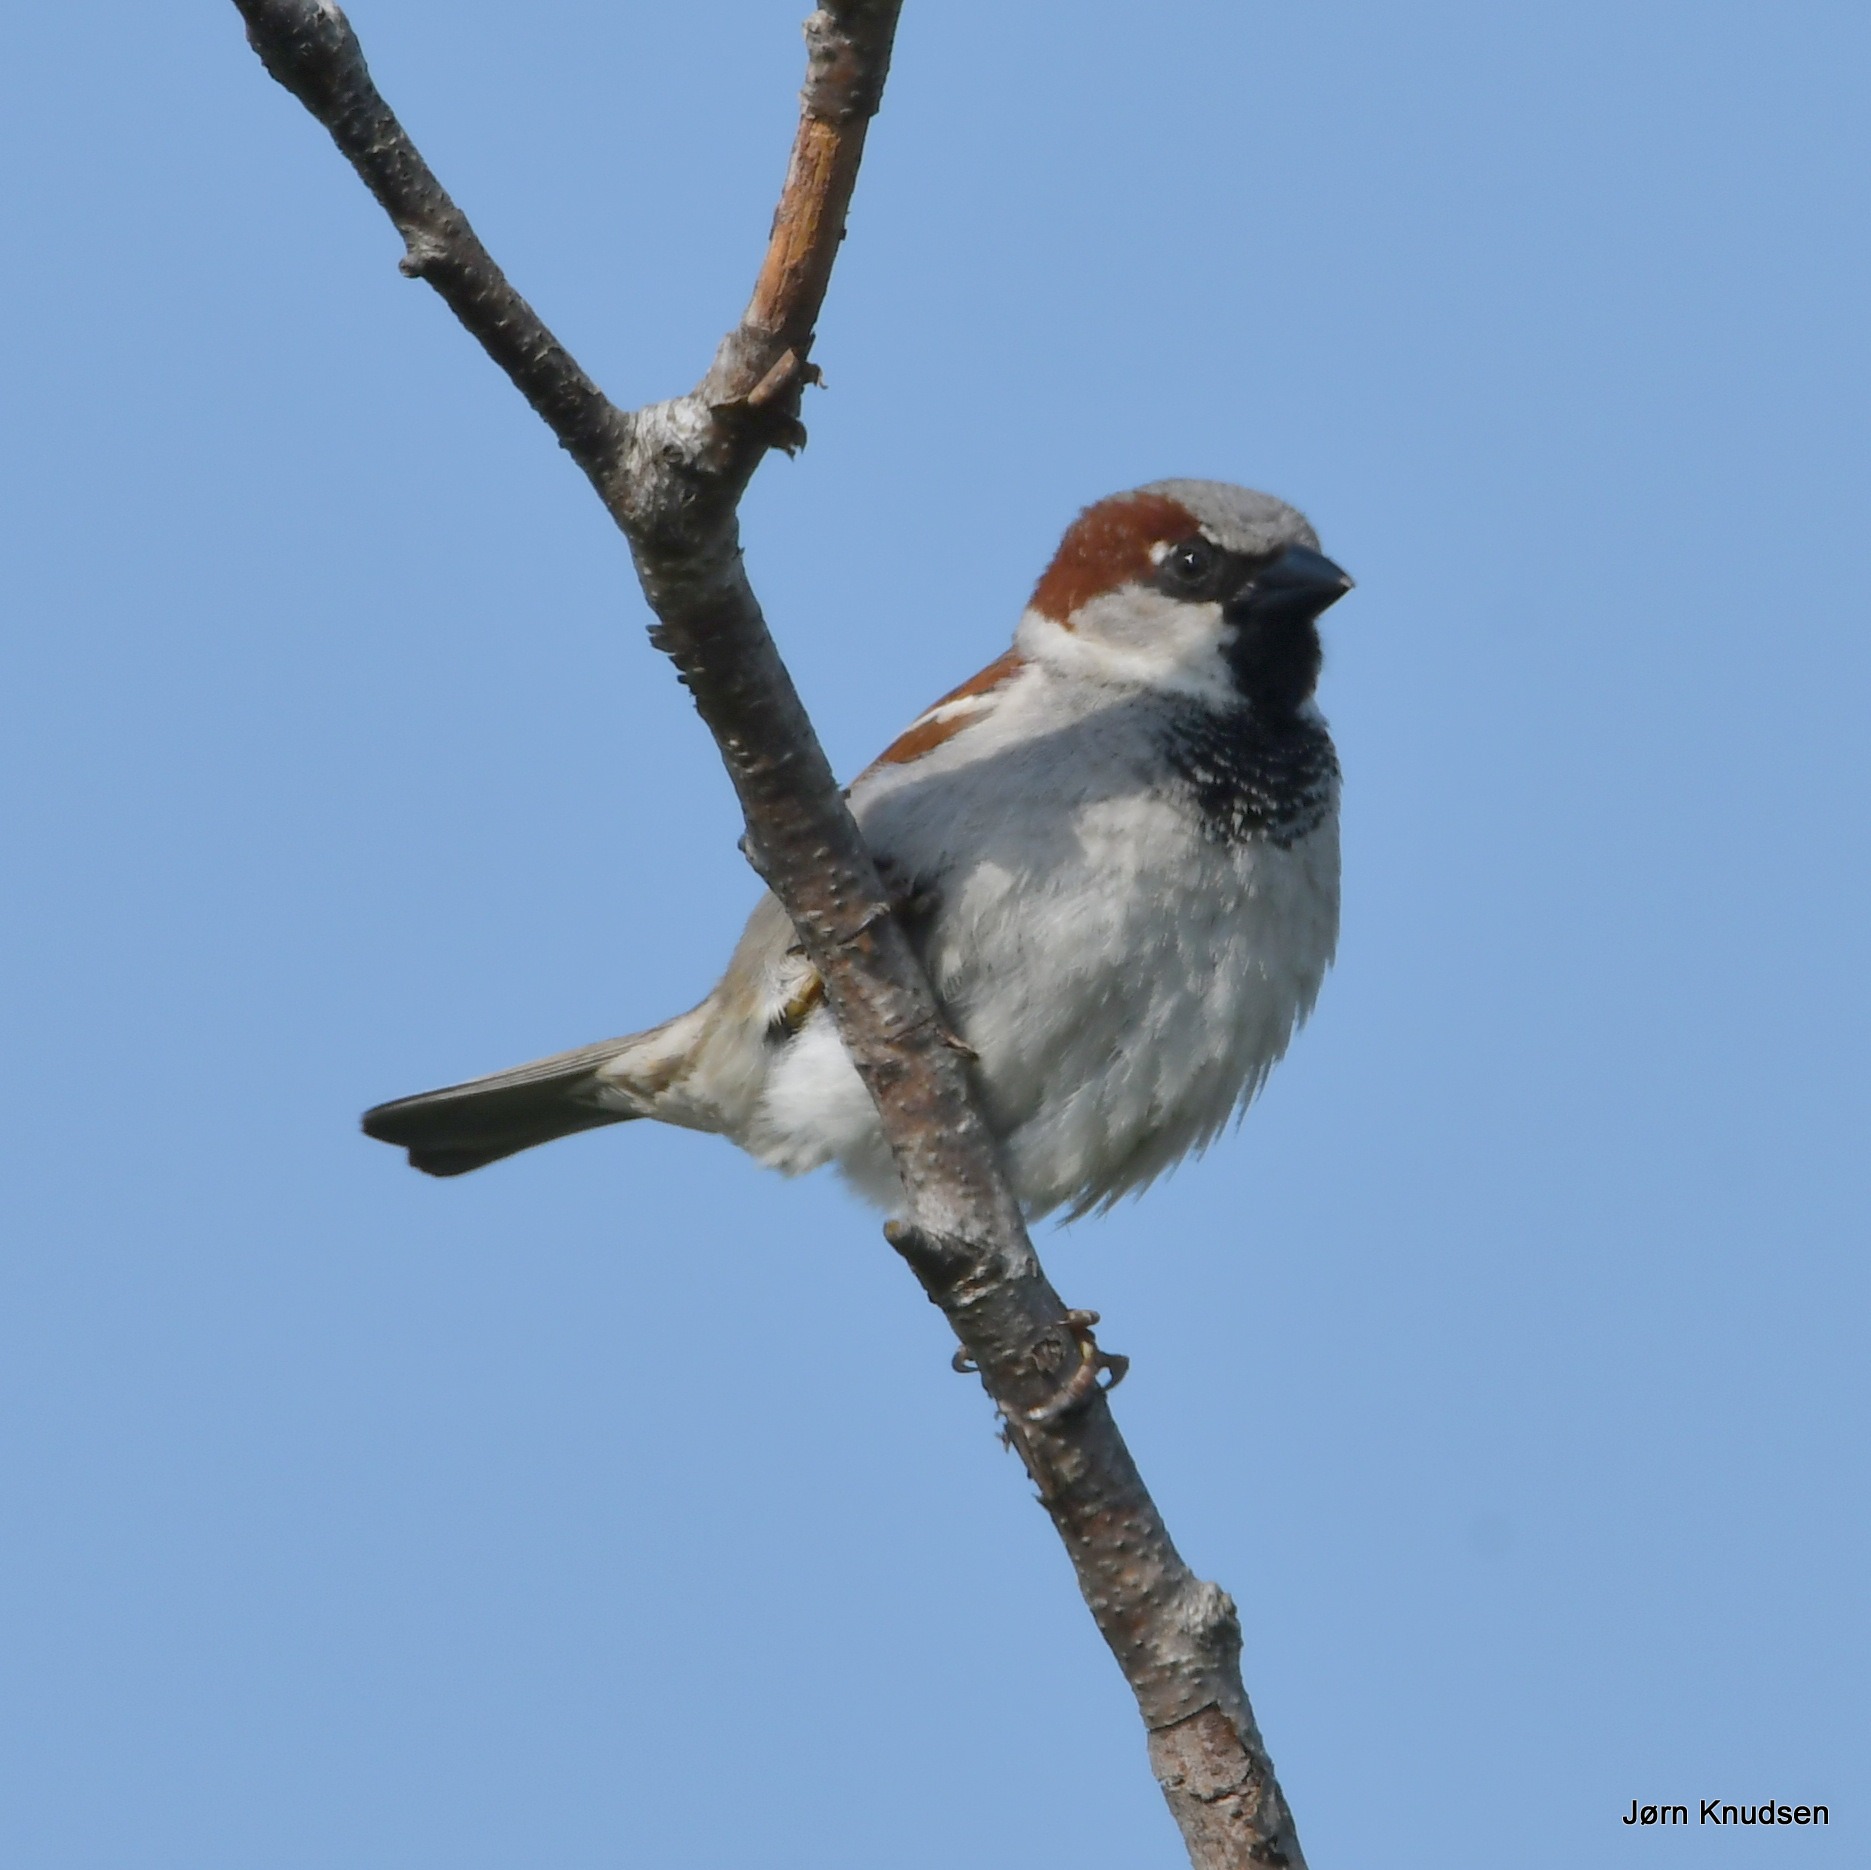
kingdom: Animalia
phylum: Chordata
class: Aves
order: Passeriformes
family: Passeridae
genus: Passer
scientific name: Passer domesticus
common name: Gråspurv
